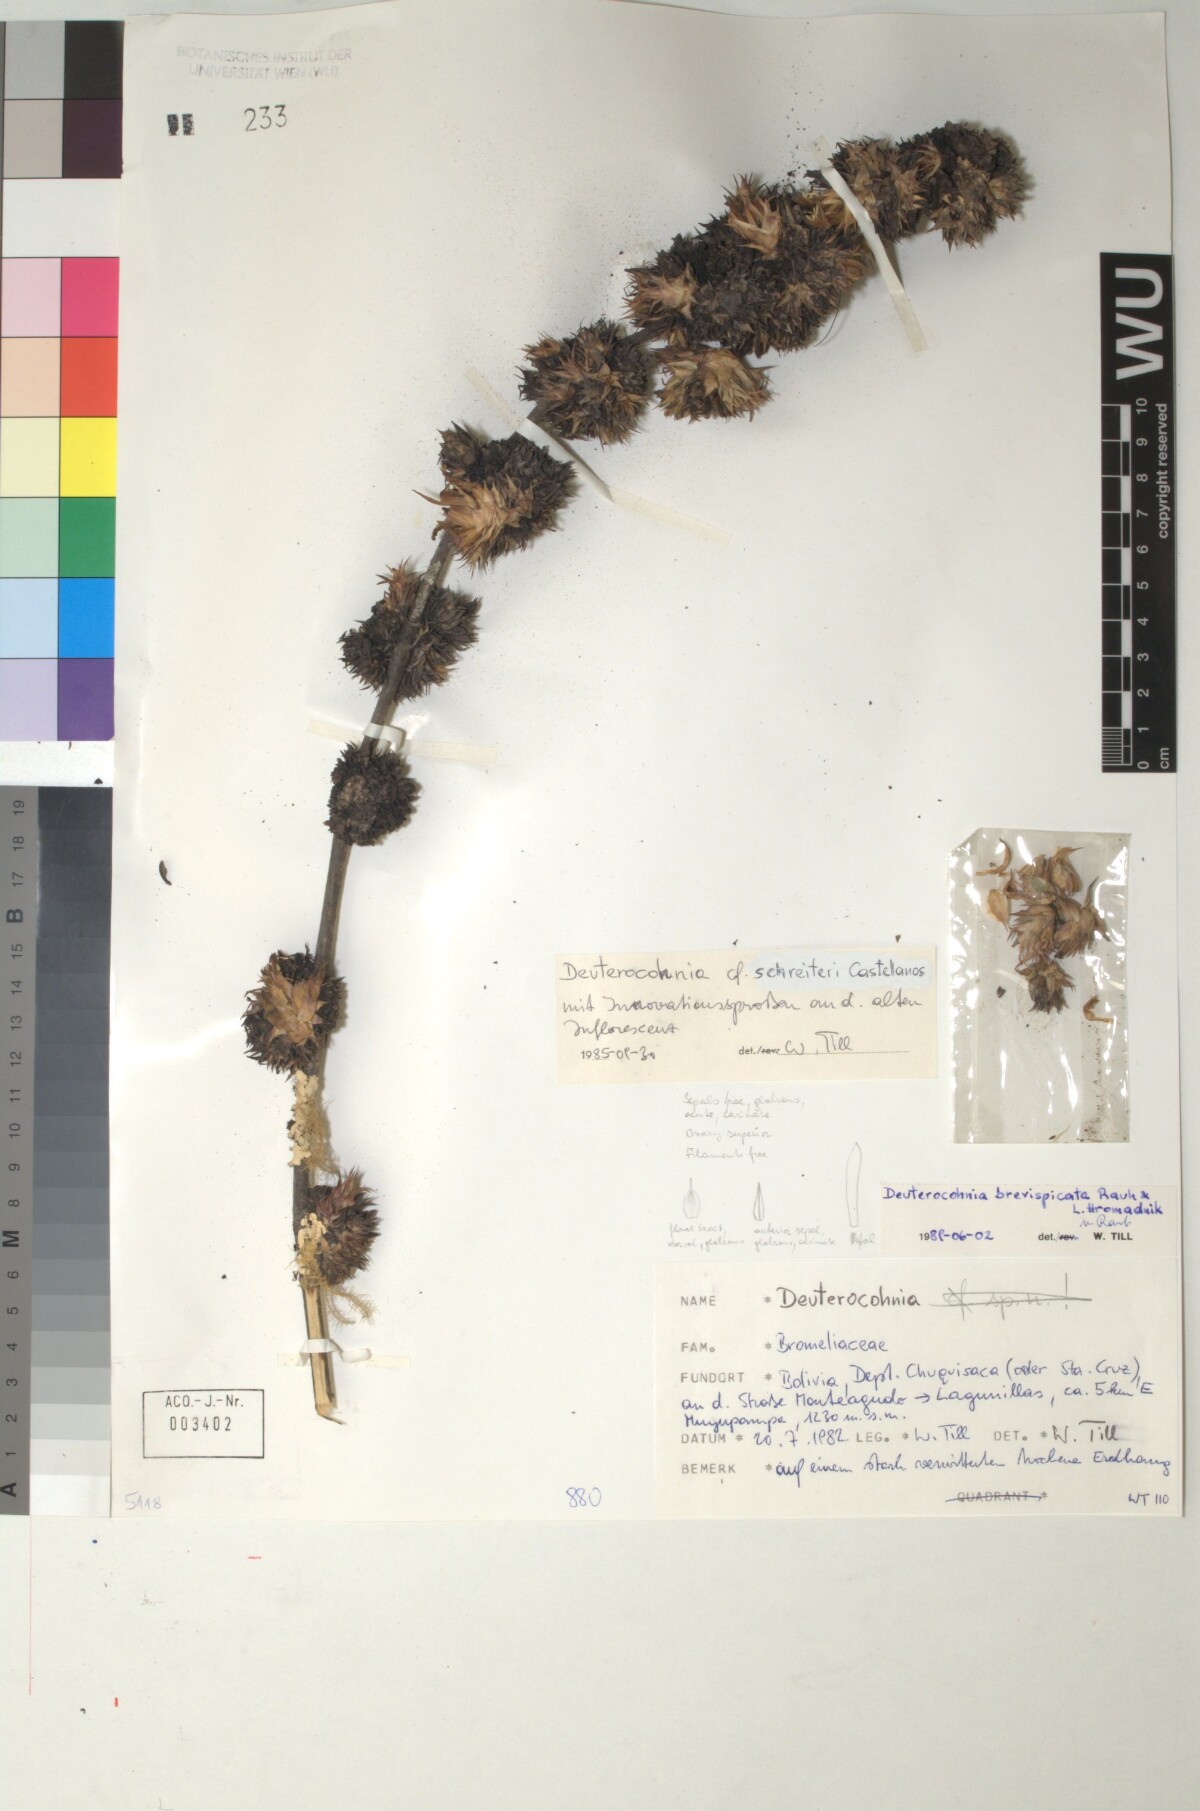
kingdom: Plantae
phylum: Tracheophyta
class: Liliopsida
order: Poales
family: Bromeliaceae
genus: Deuterocohnia
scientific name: Deuterocohnia brevispicata
